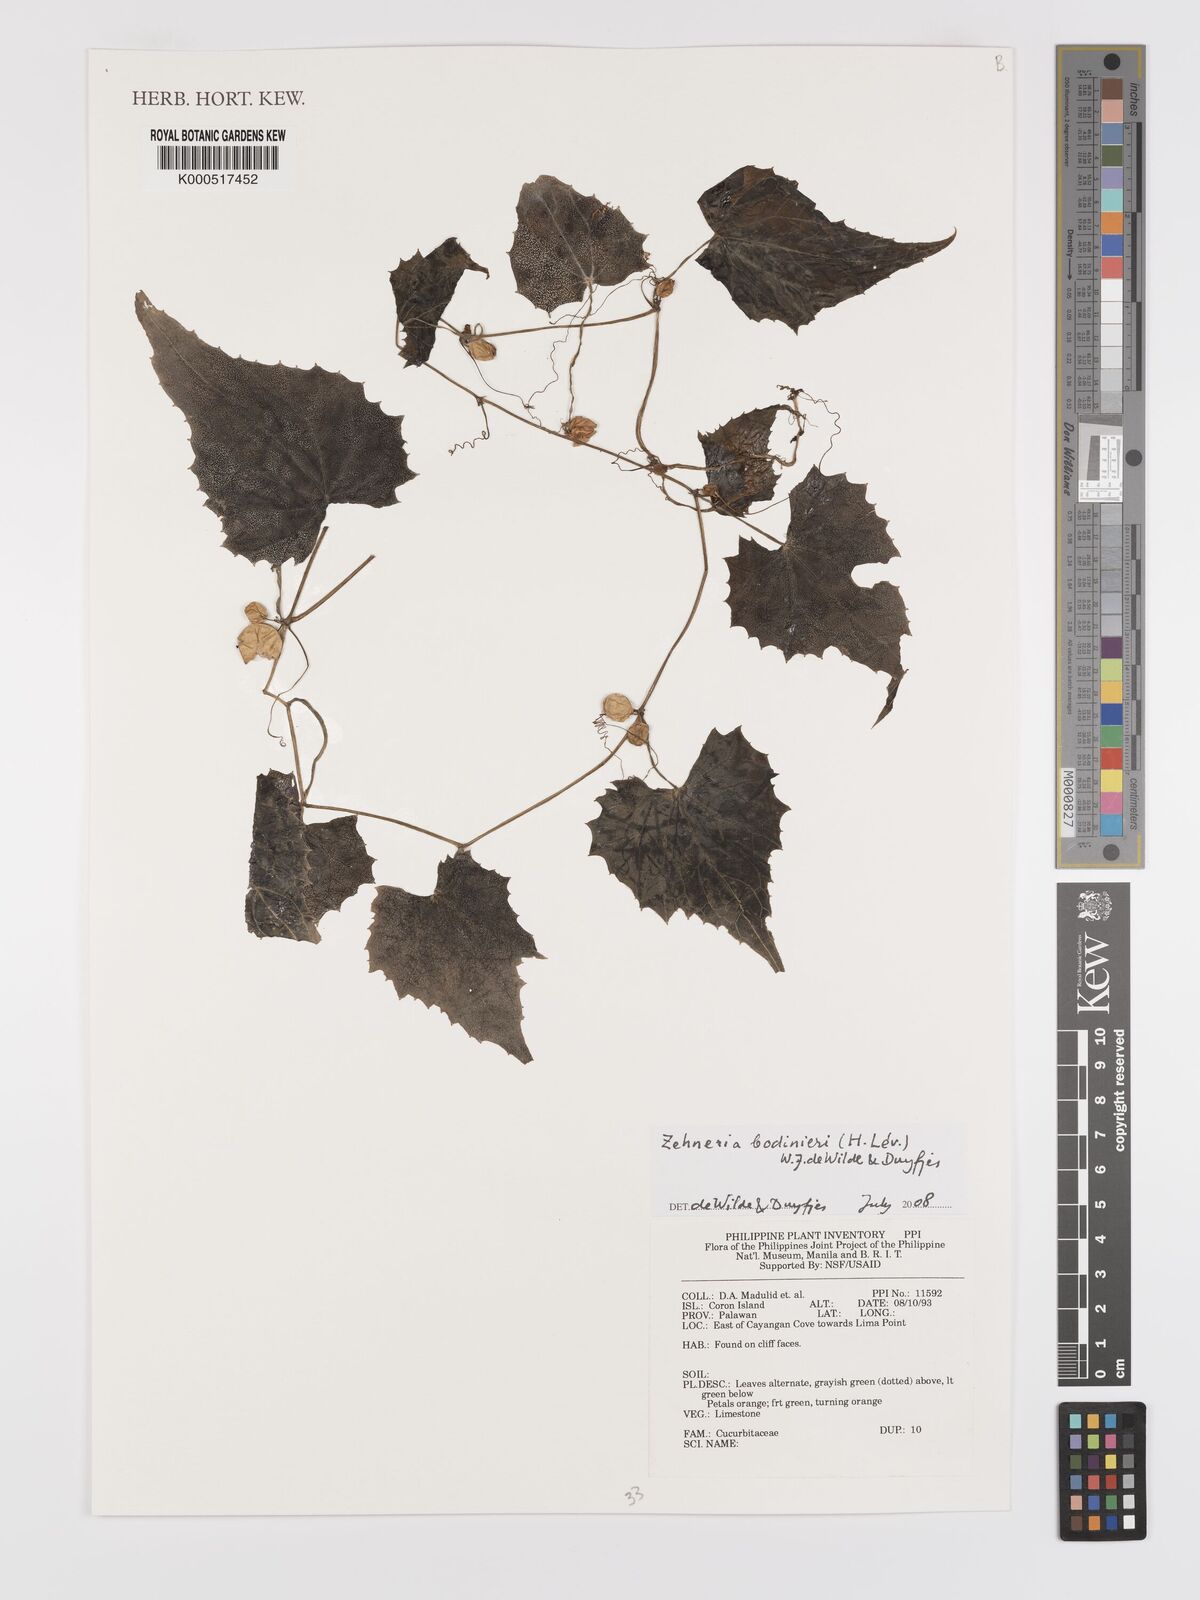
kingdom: Plantae
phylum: Tracheophyta
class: Magnoliopsida
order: Cucurbitales
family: Cucurbitaceae
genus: Zehneria
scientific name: Zehneria
